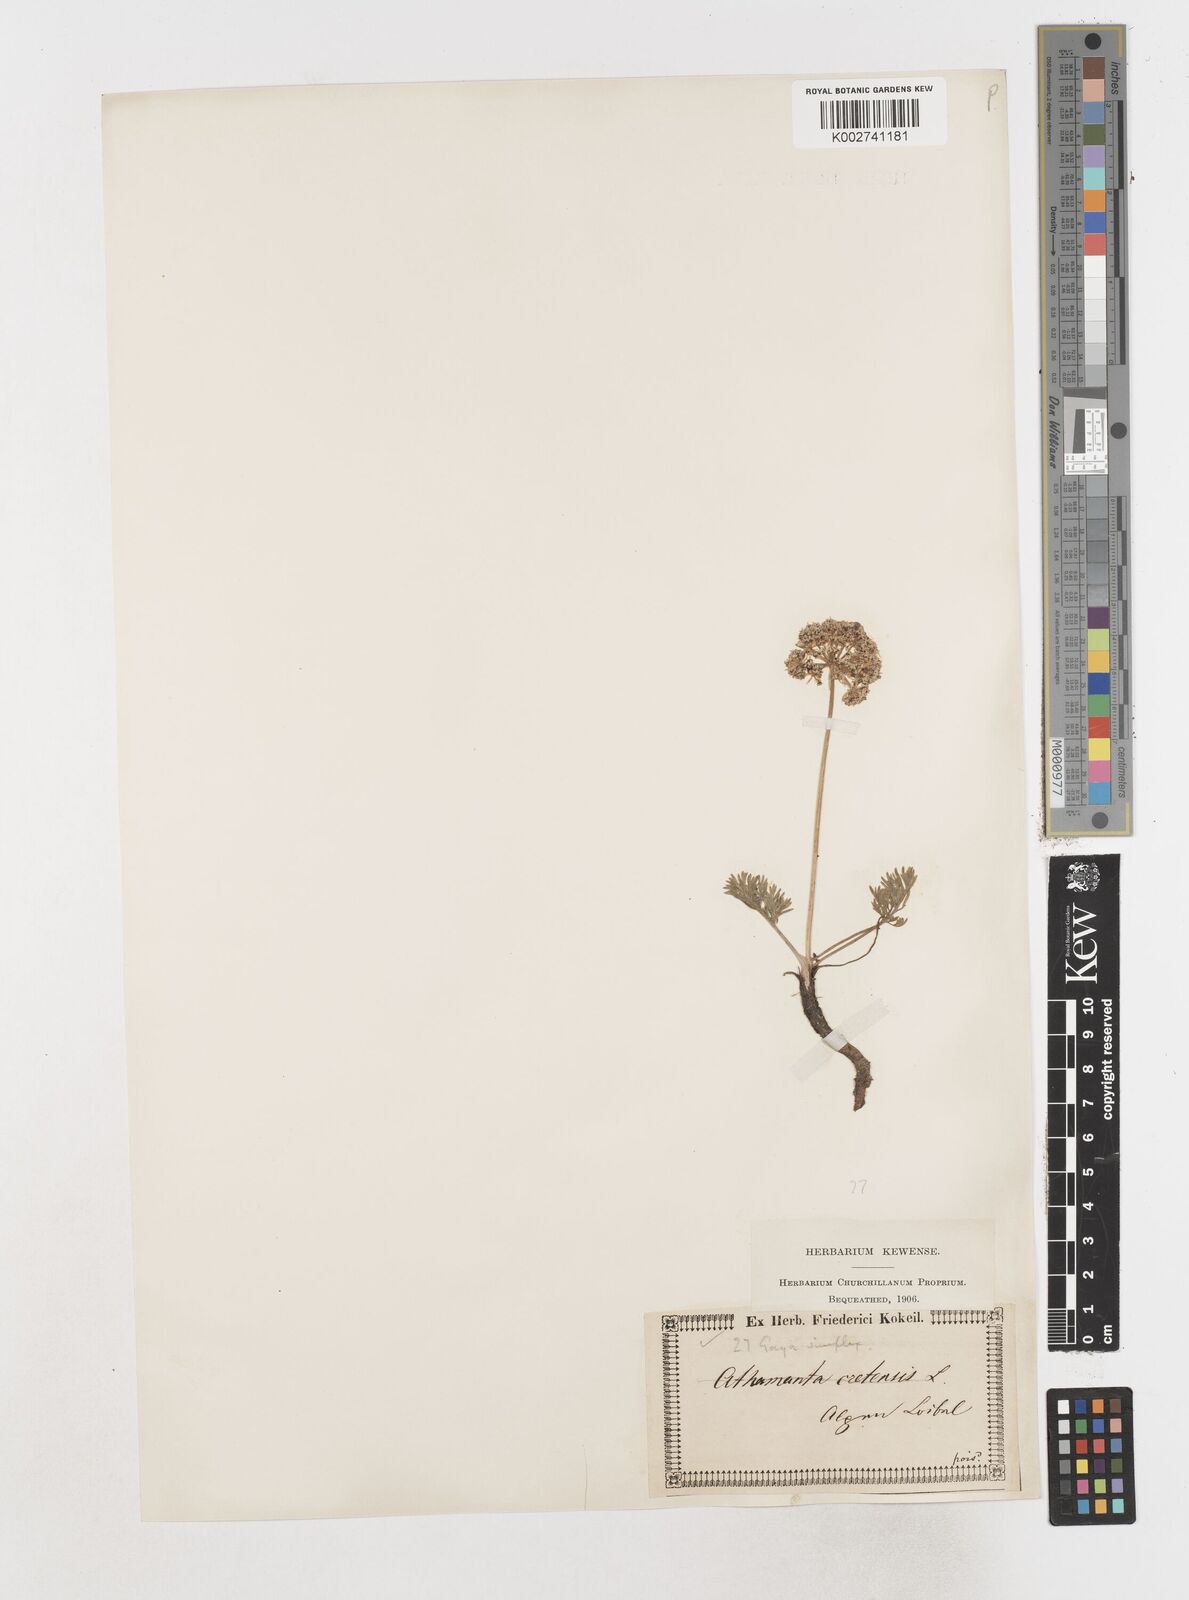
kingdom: Plantae
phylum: Tracheophyta
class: Magnoliopsida
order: Apiales
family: Apiaceae
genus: Pachypleurum
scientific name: Pachypleurum mutellinoides
